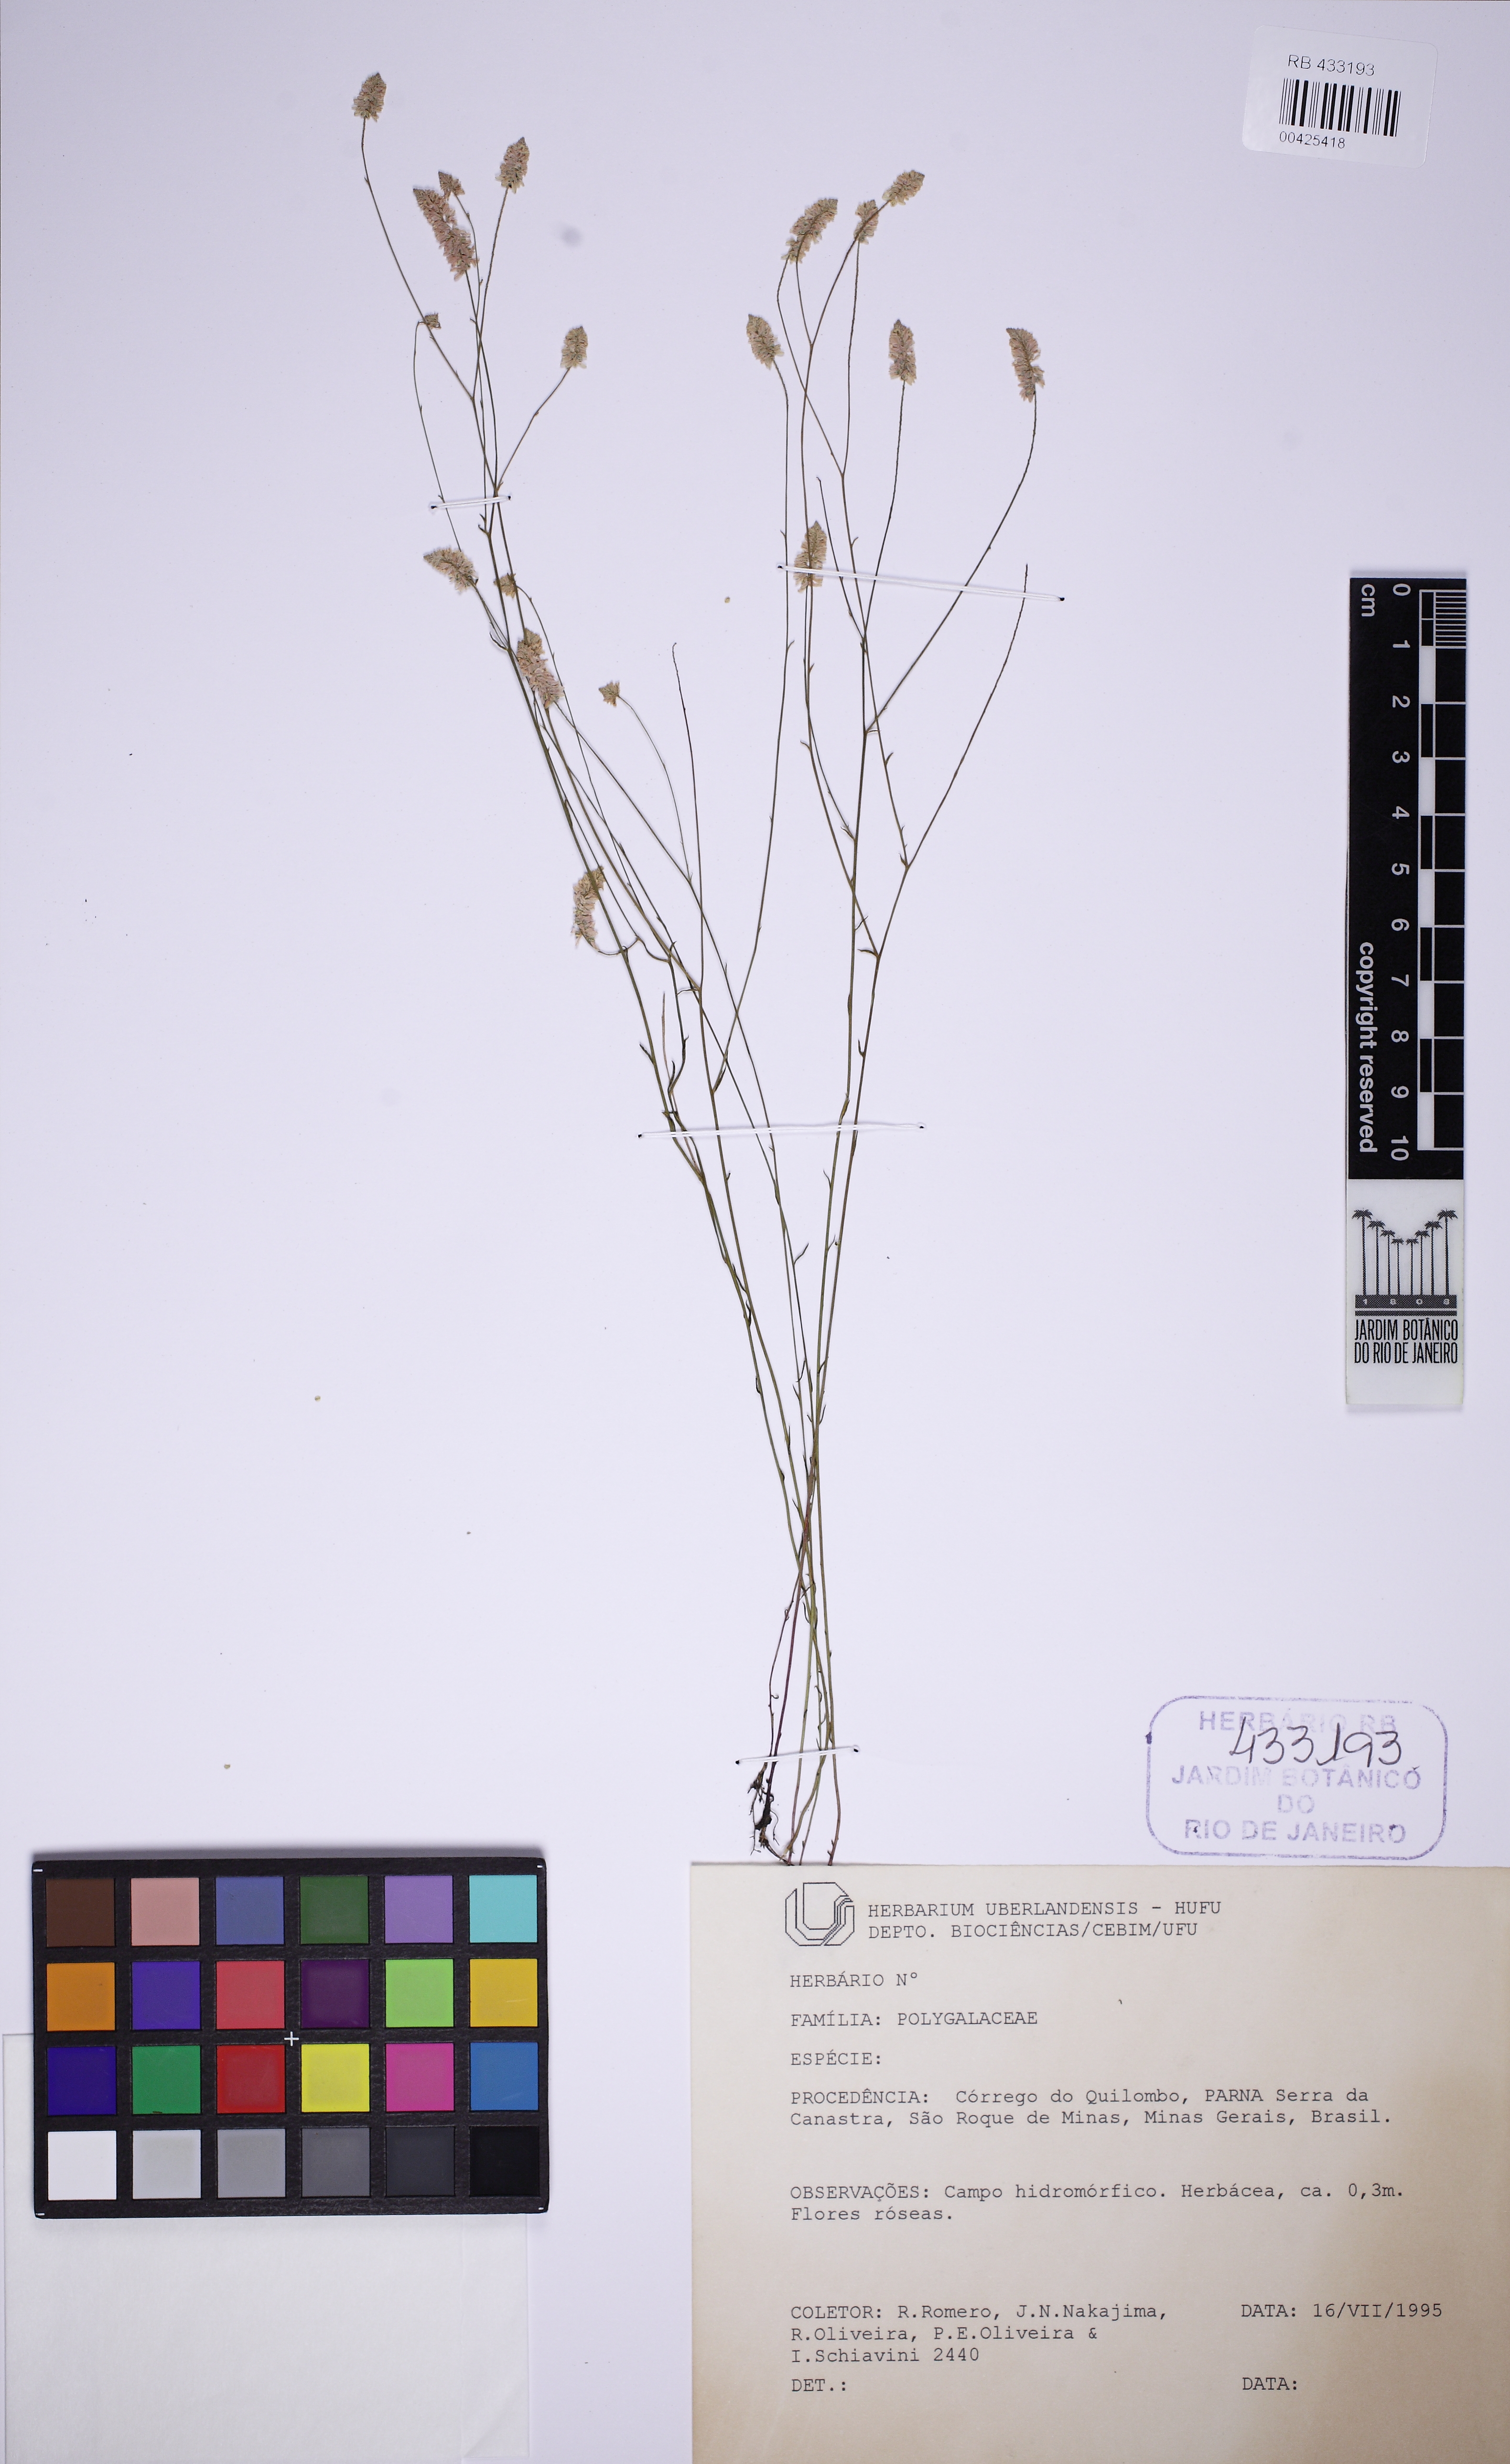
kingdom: Plantae
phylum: Tracheophyta
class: Magnoliopsida
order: Fabales
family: Polygalaceae
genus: Polygala
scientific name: Polygala tenuis
